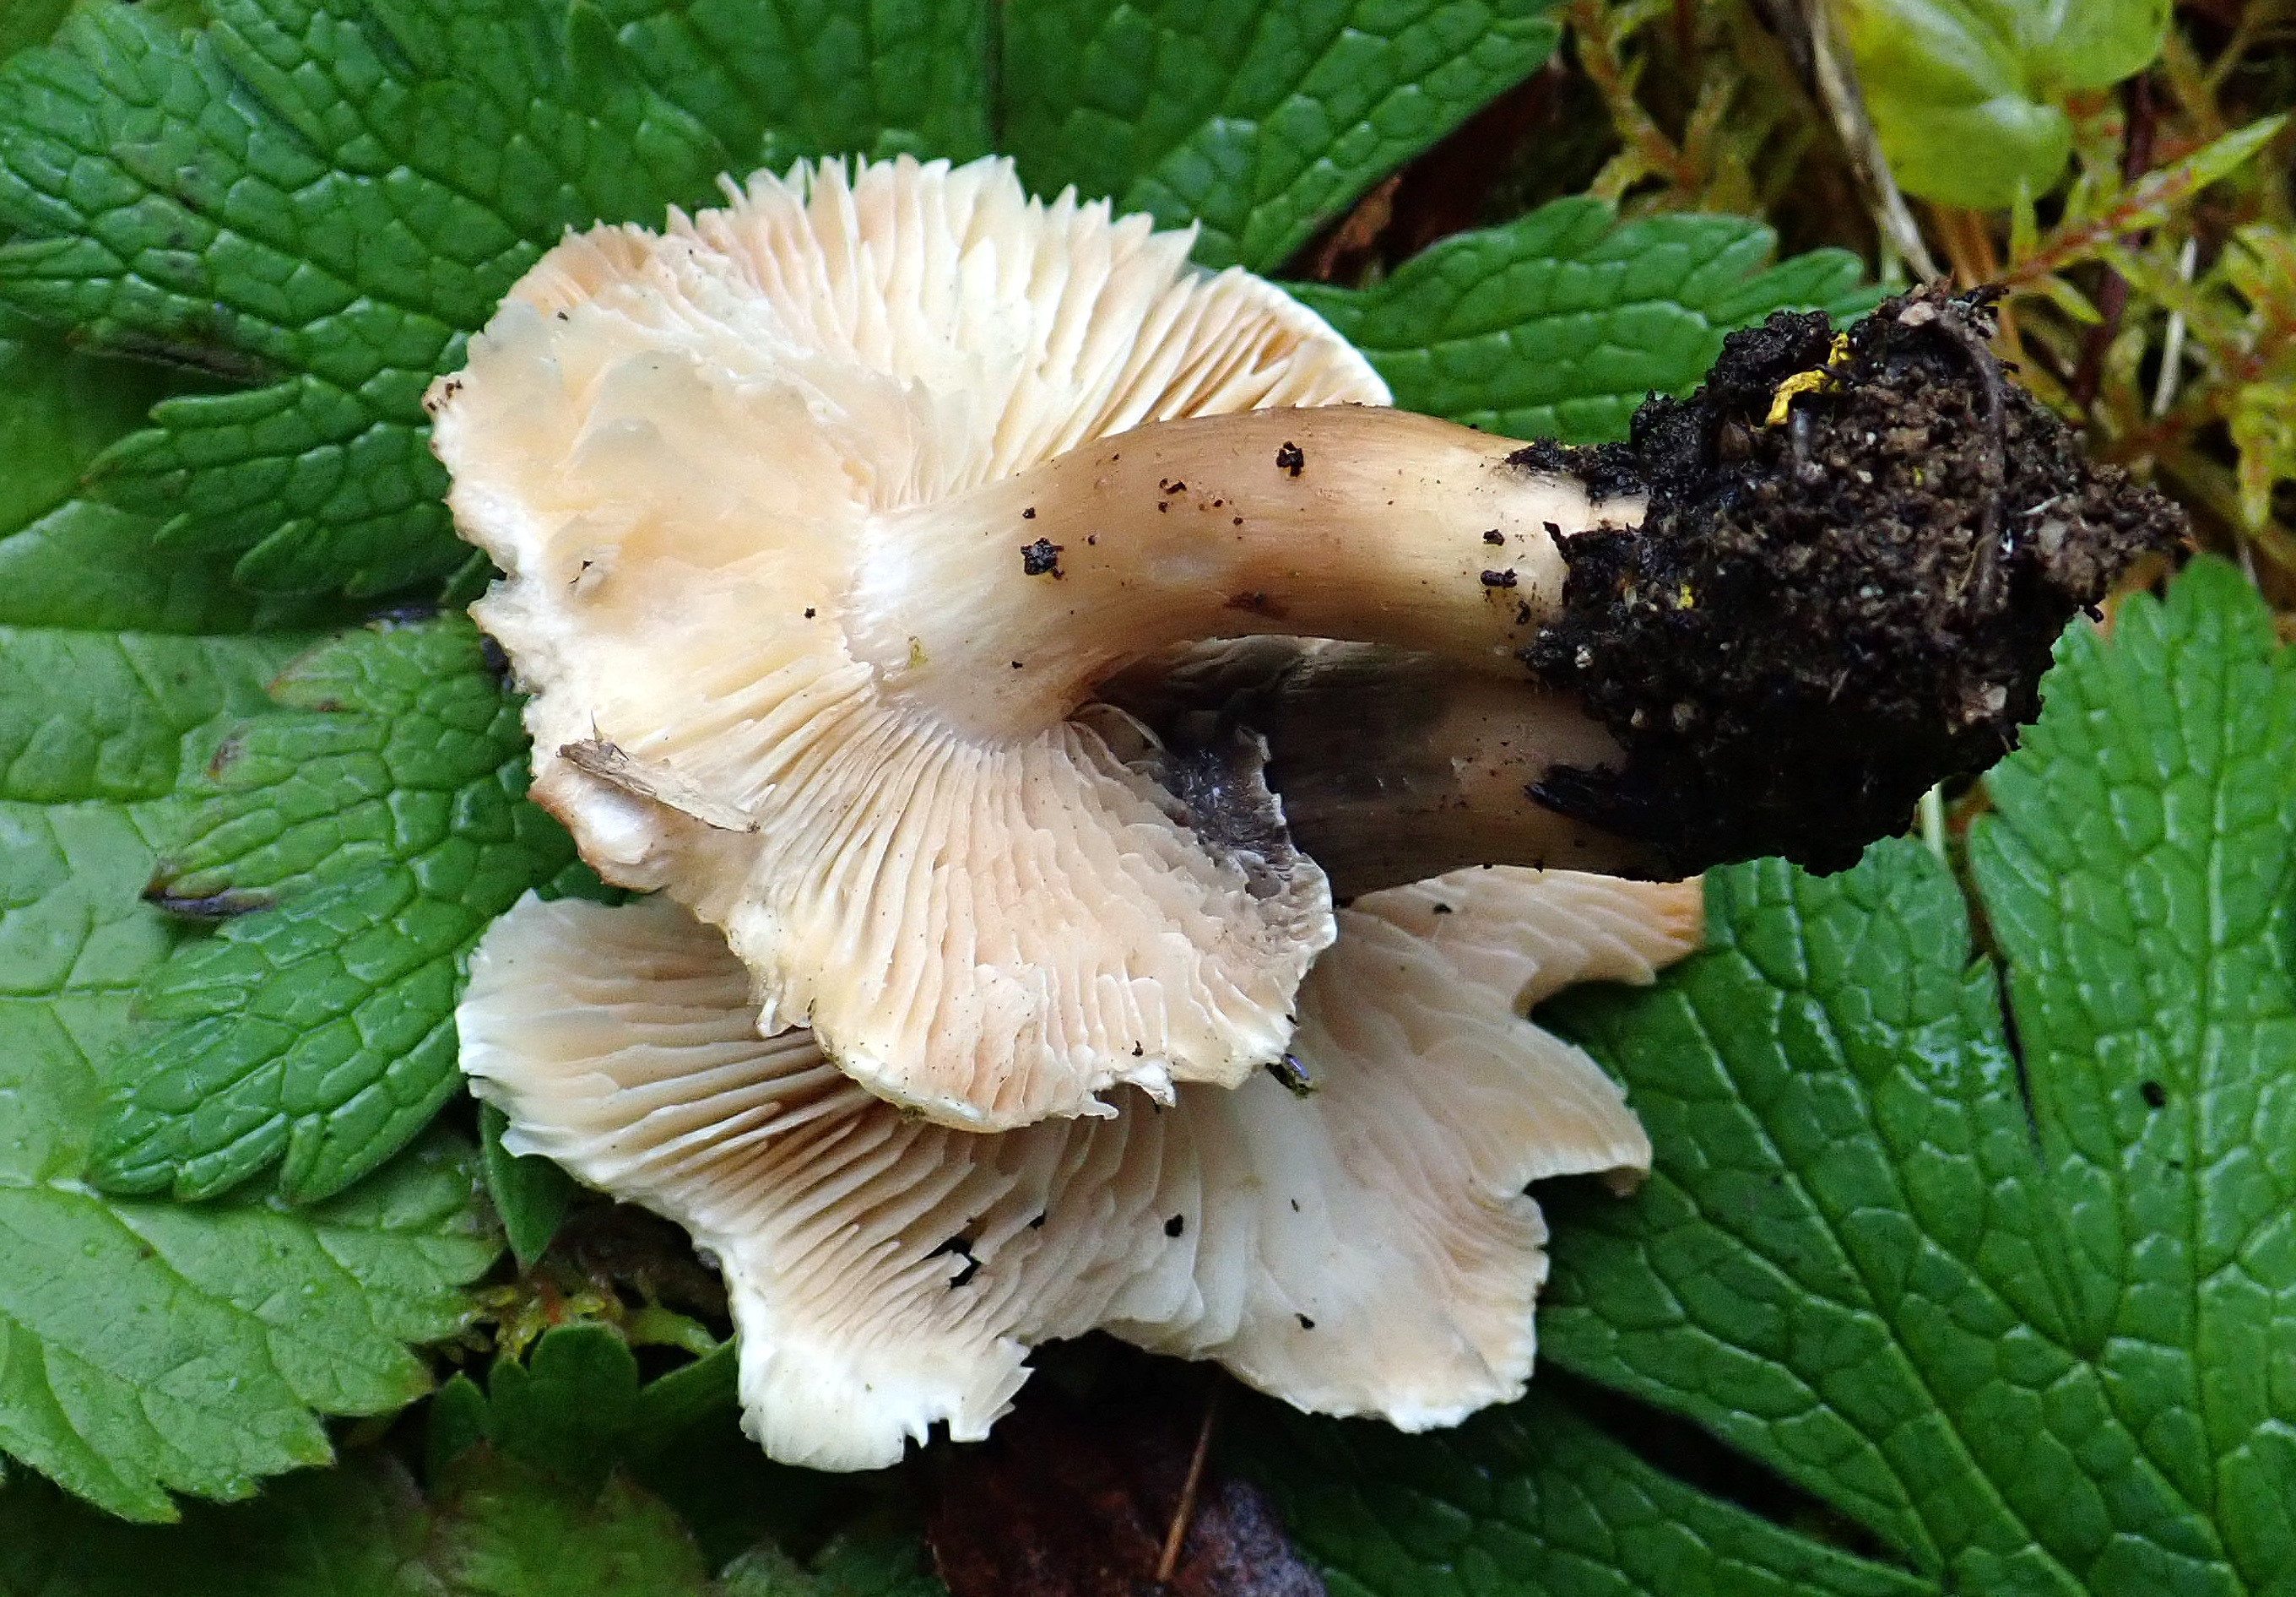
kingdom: Fungi
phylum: Basidiomycota
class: Agaricomycetes
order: Agaricales
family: Tricholomataceae
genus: Tricholoma
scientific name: Tricholoma saponaceum
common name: Soapy trich
